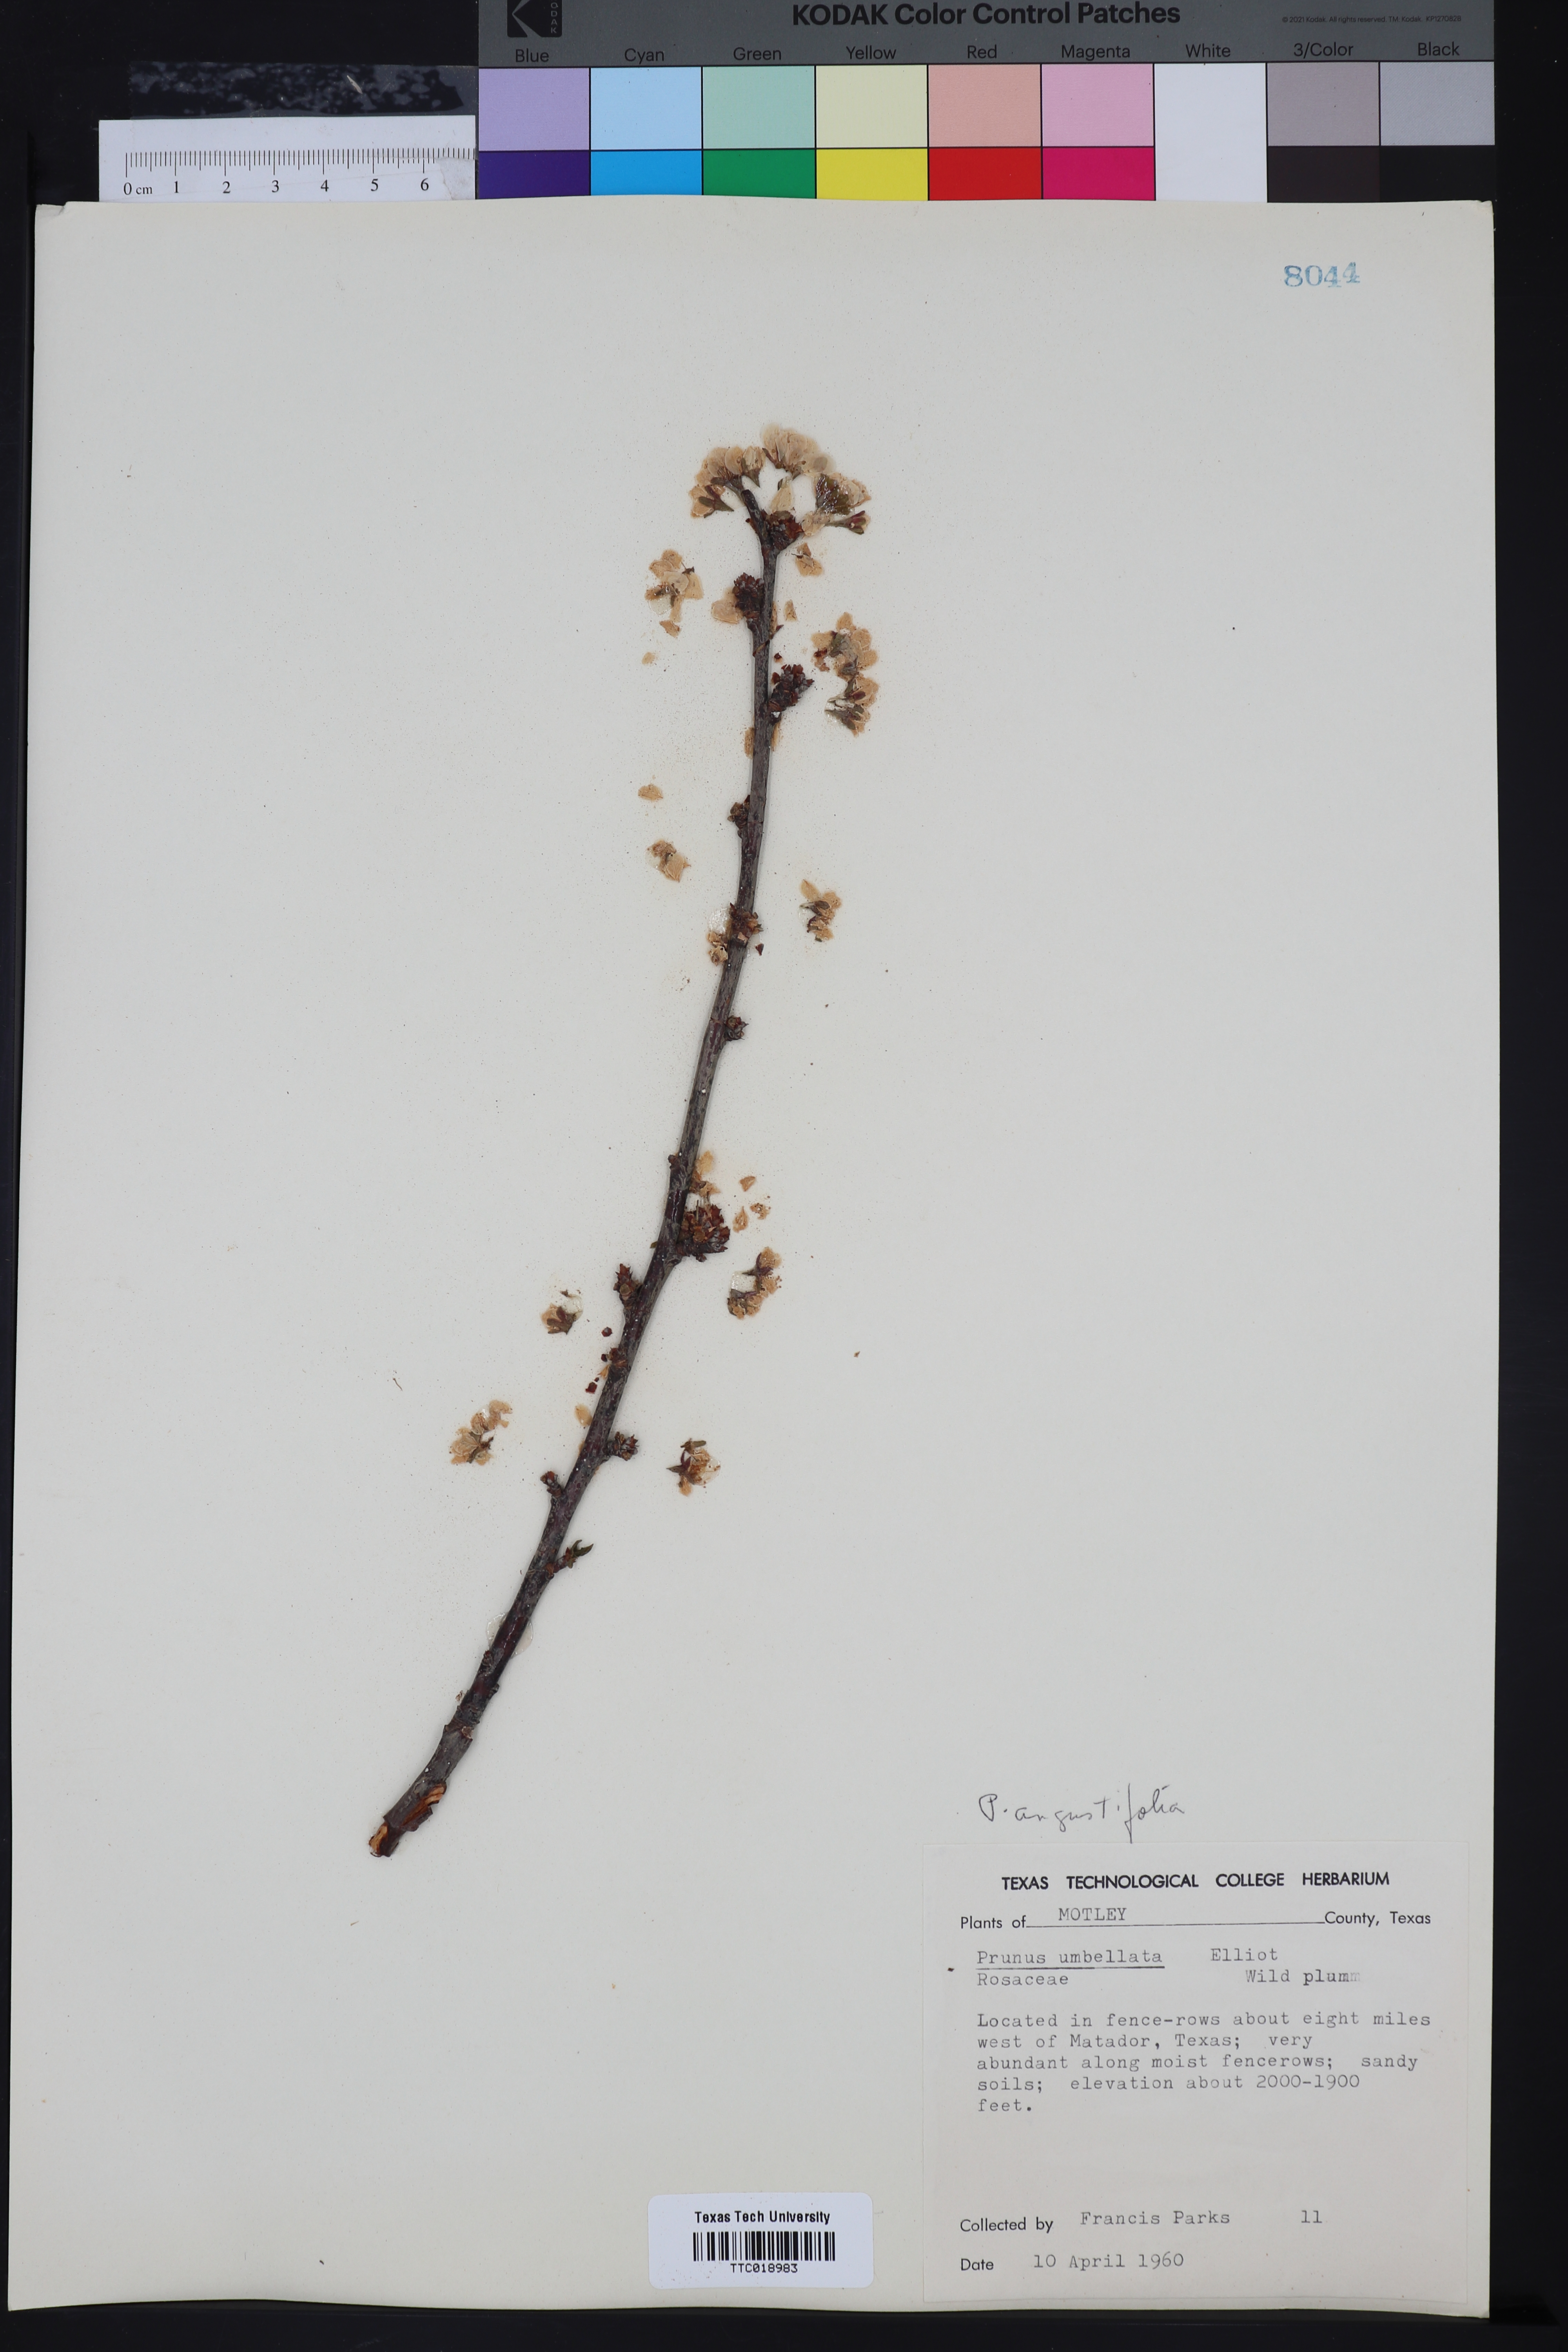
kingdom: Plantae
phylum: Tracheophyta
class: Magnoliopsida
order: Rosales
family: Rosaceae
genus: Prunus
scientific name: Prunus umbellata
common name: Allegheny plum
